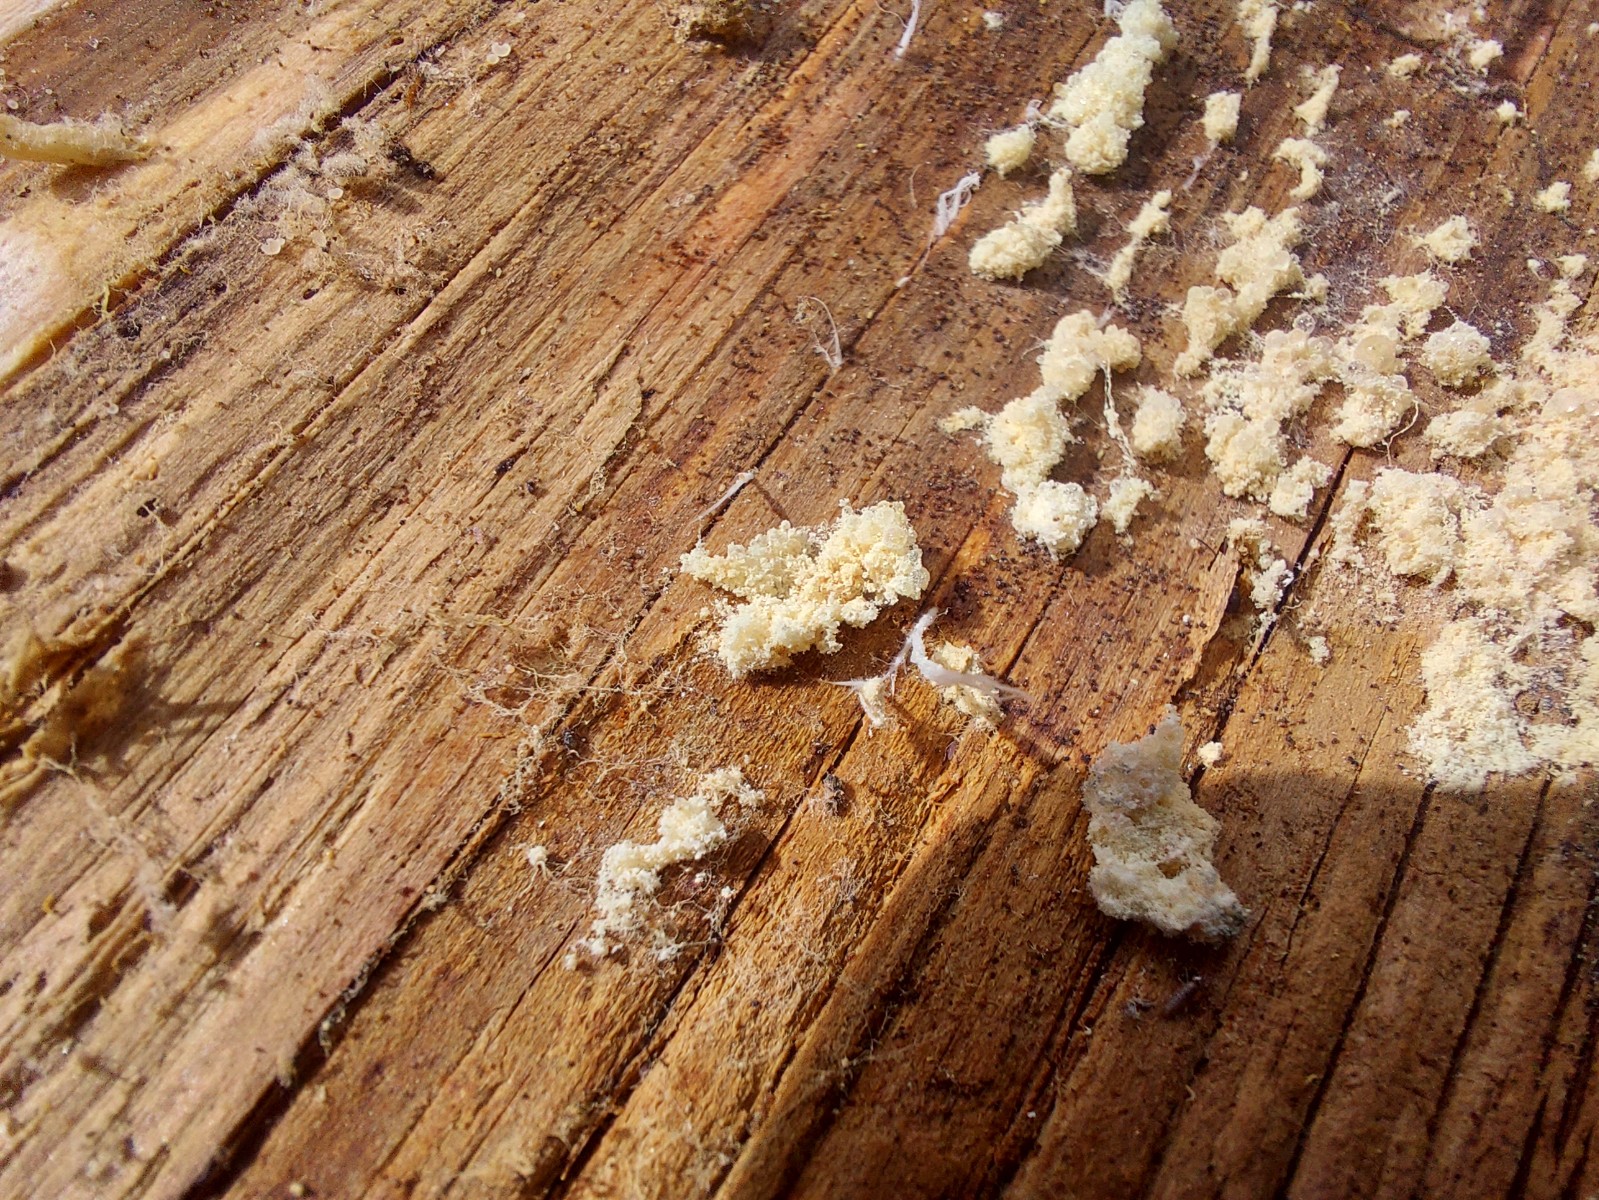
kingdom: Fungi
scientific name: Fungi
